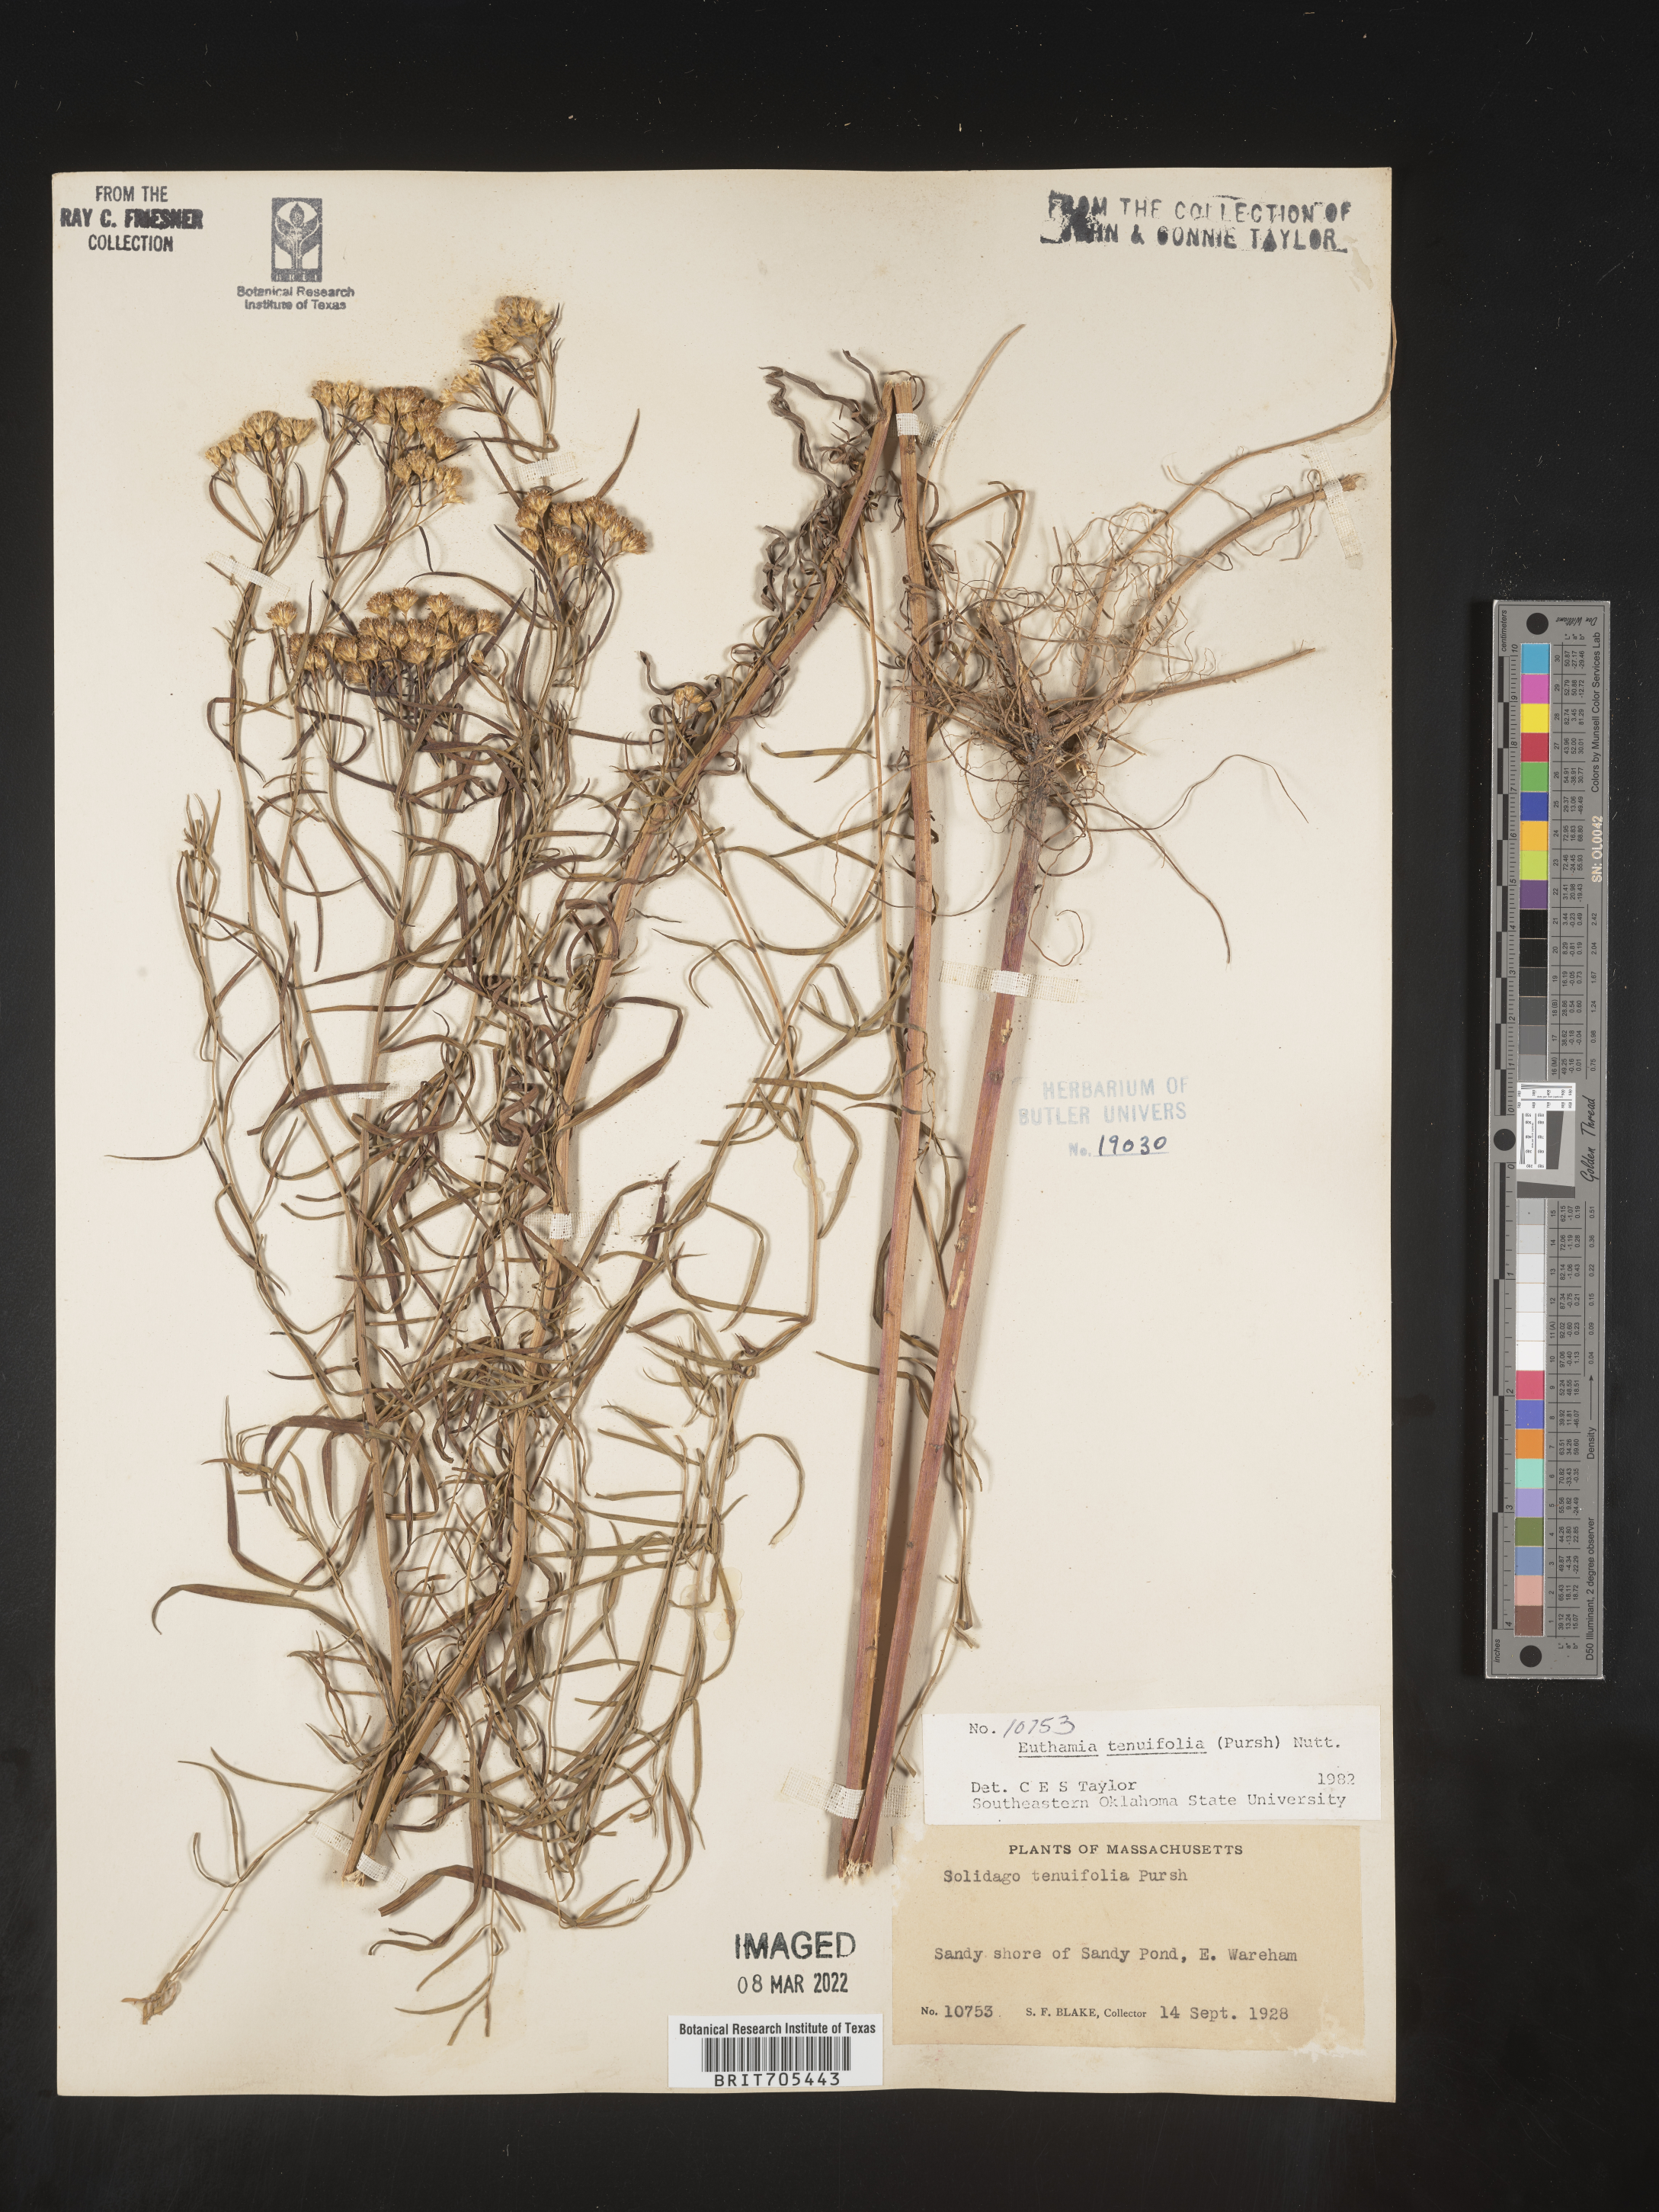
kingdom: Plantae
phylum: Tracheophyta
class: Magnoliopsida
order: Asterales
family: Asteraceae
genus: Euthamia
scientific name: Euthamia scabra
